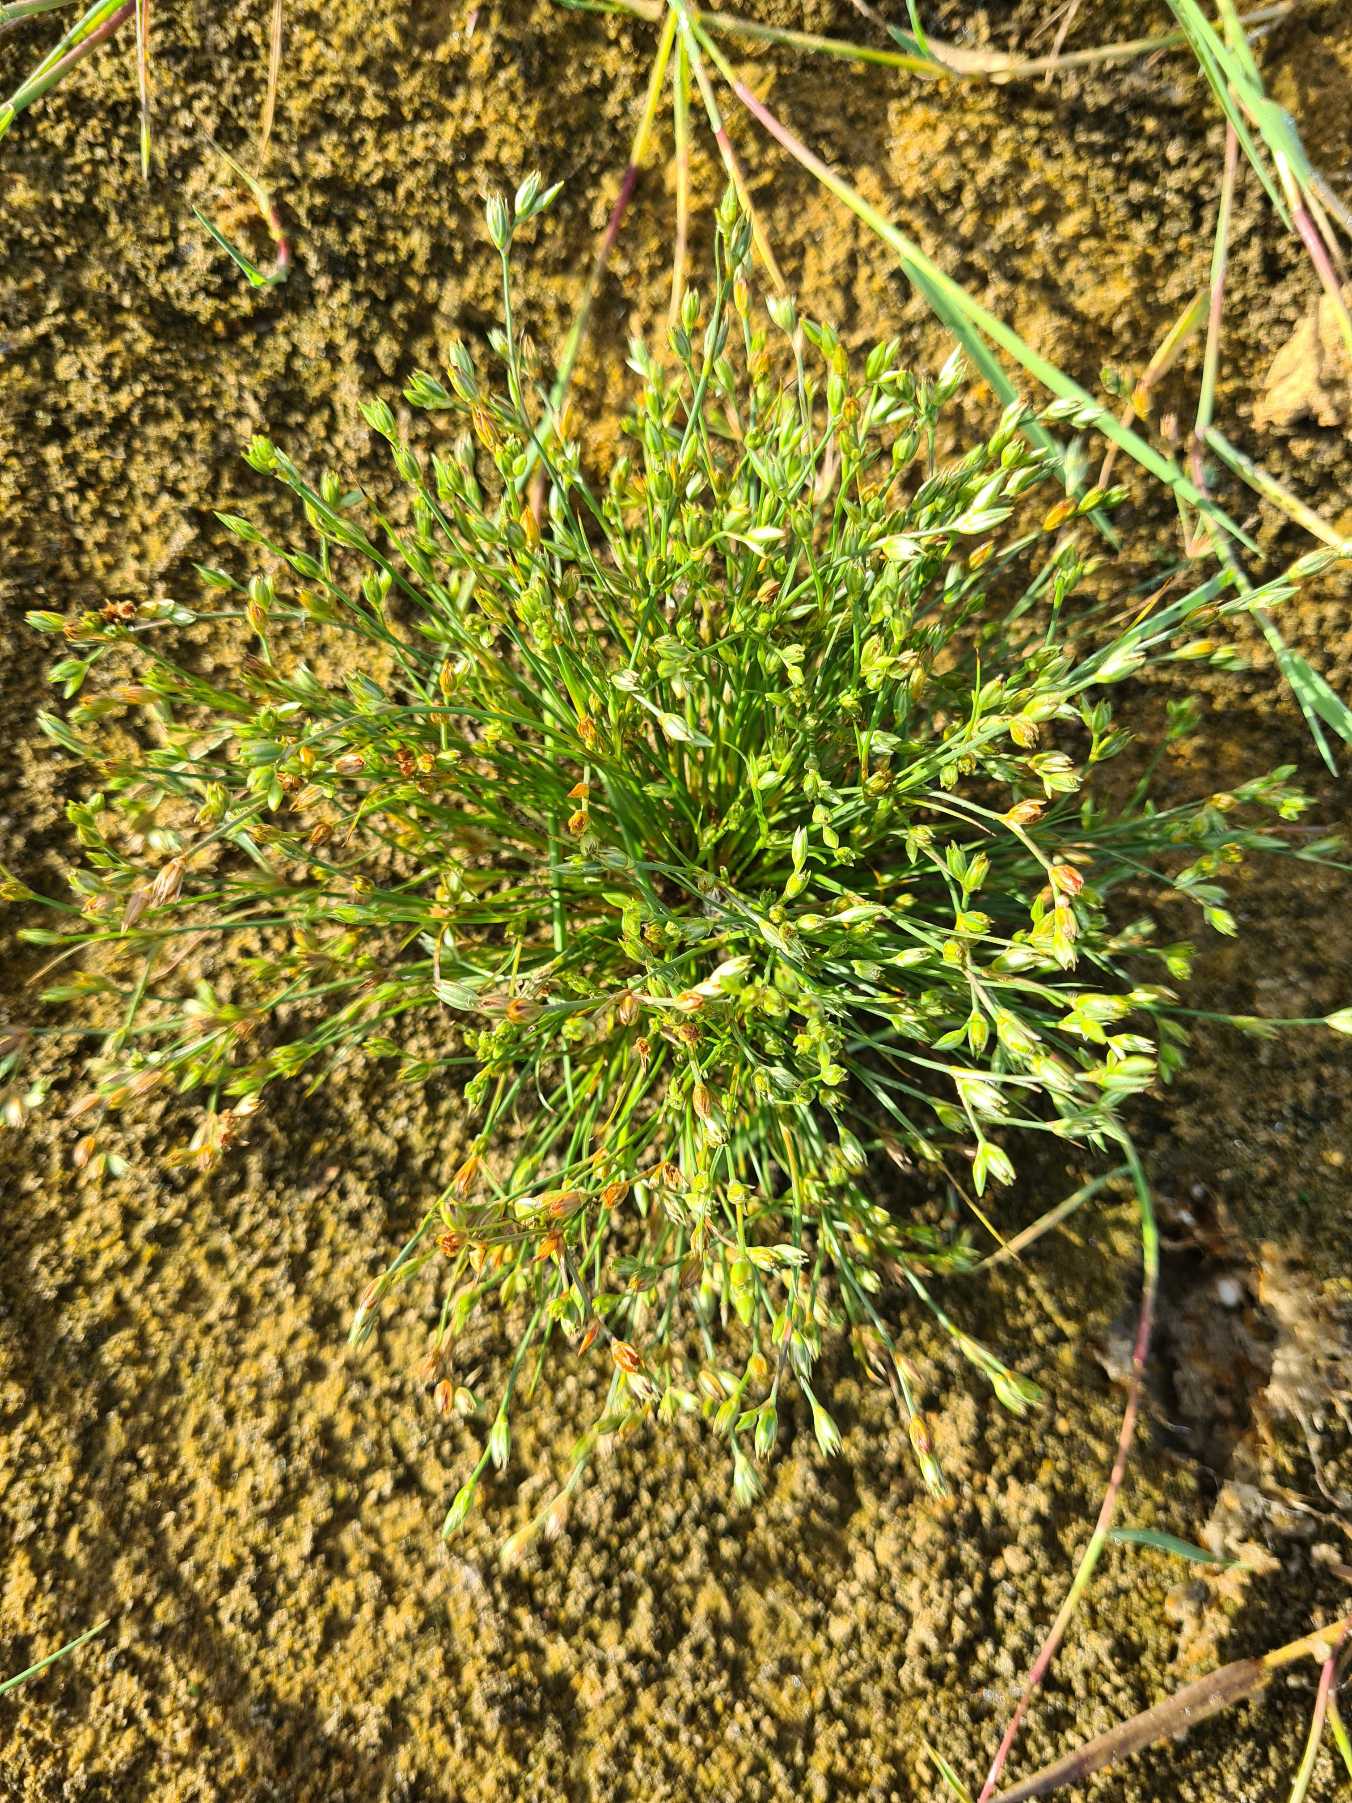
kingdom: Plantae
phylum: Tracheophyta
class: Liliopsida
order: Poales
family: Juncaceae
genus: Juncus
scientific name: Juncus bufonius
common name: Tudse-siv
